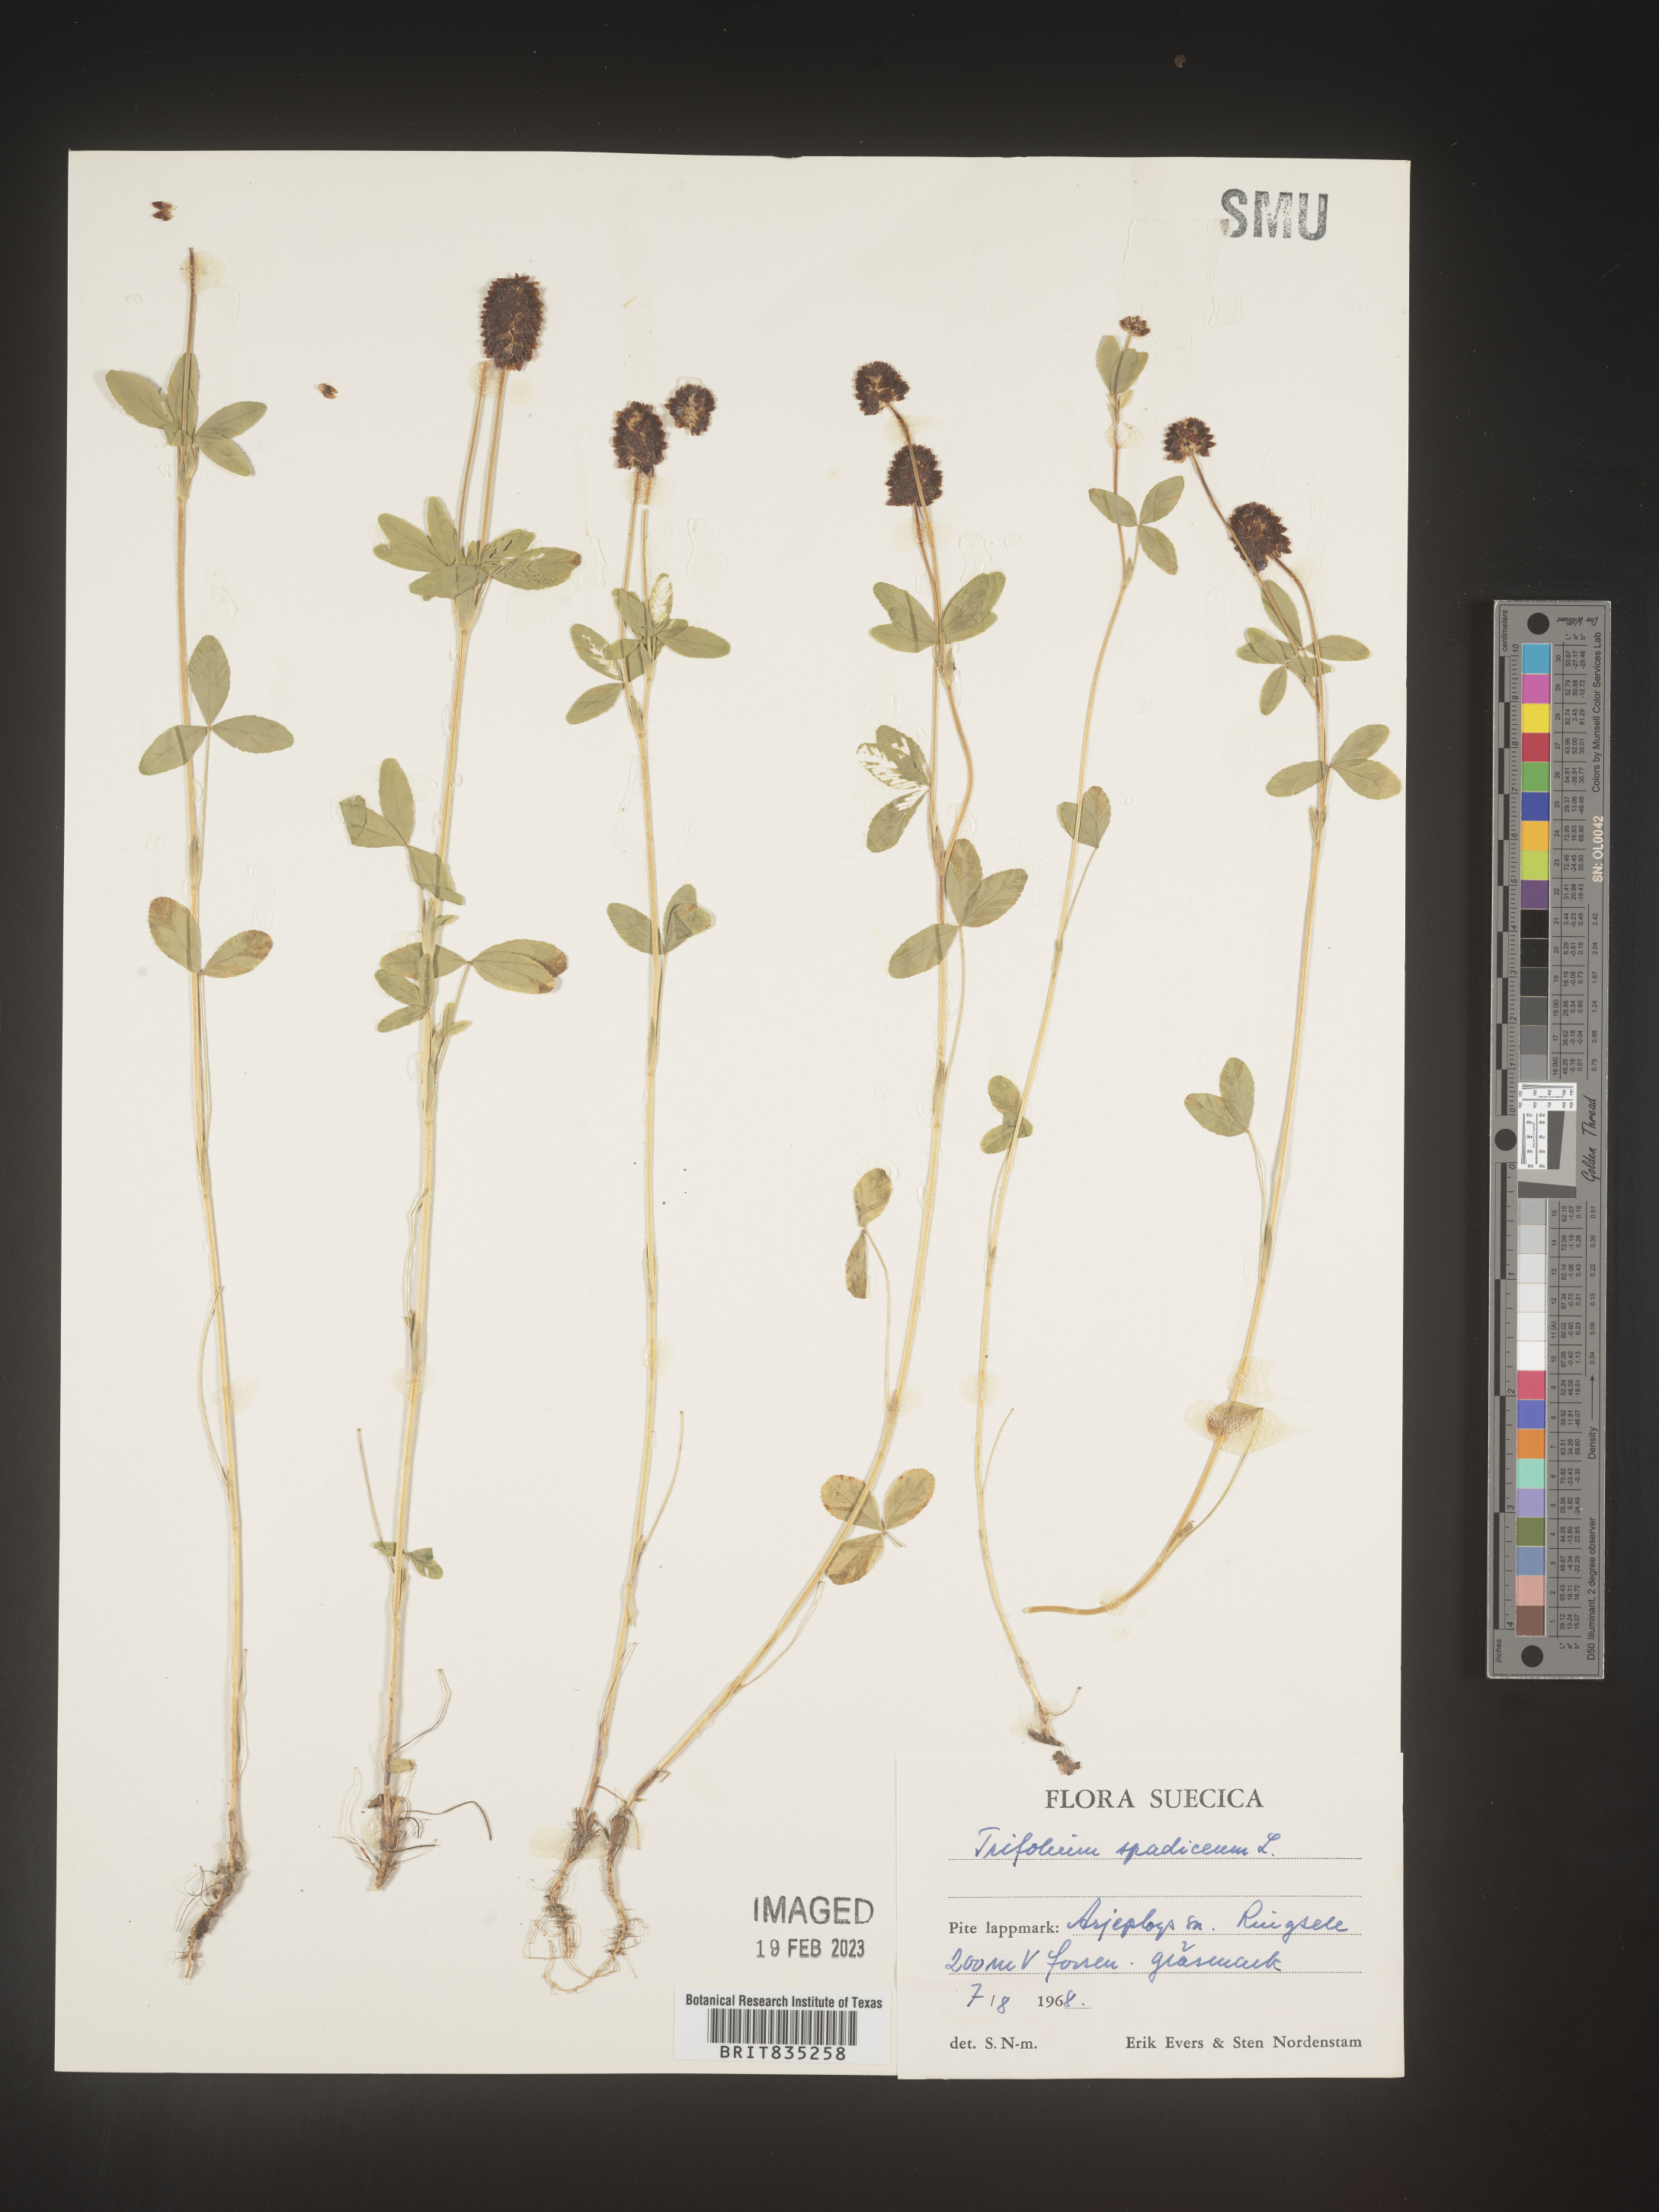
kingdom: Plantae
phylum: Tracheophyta
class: Magnoliopsida
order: Fabales
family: Fabaceae
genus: Trifolium
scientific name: Trifolium
